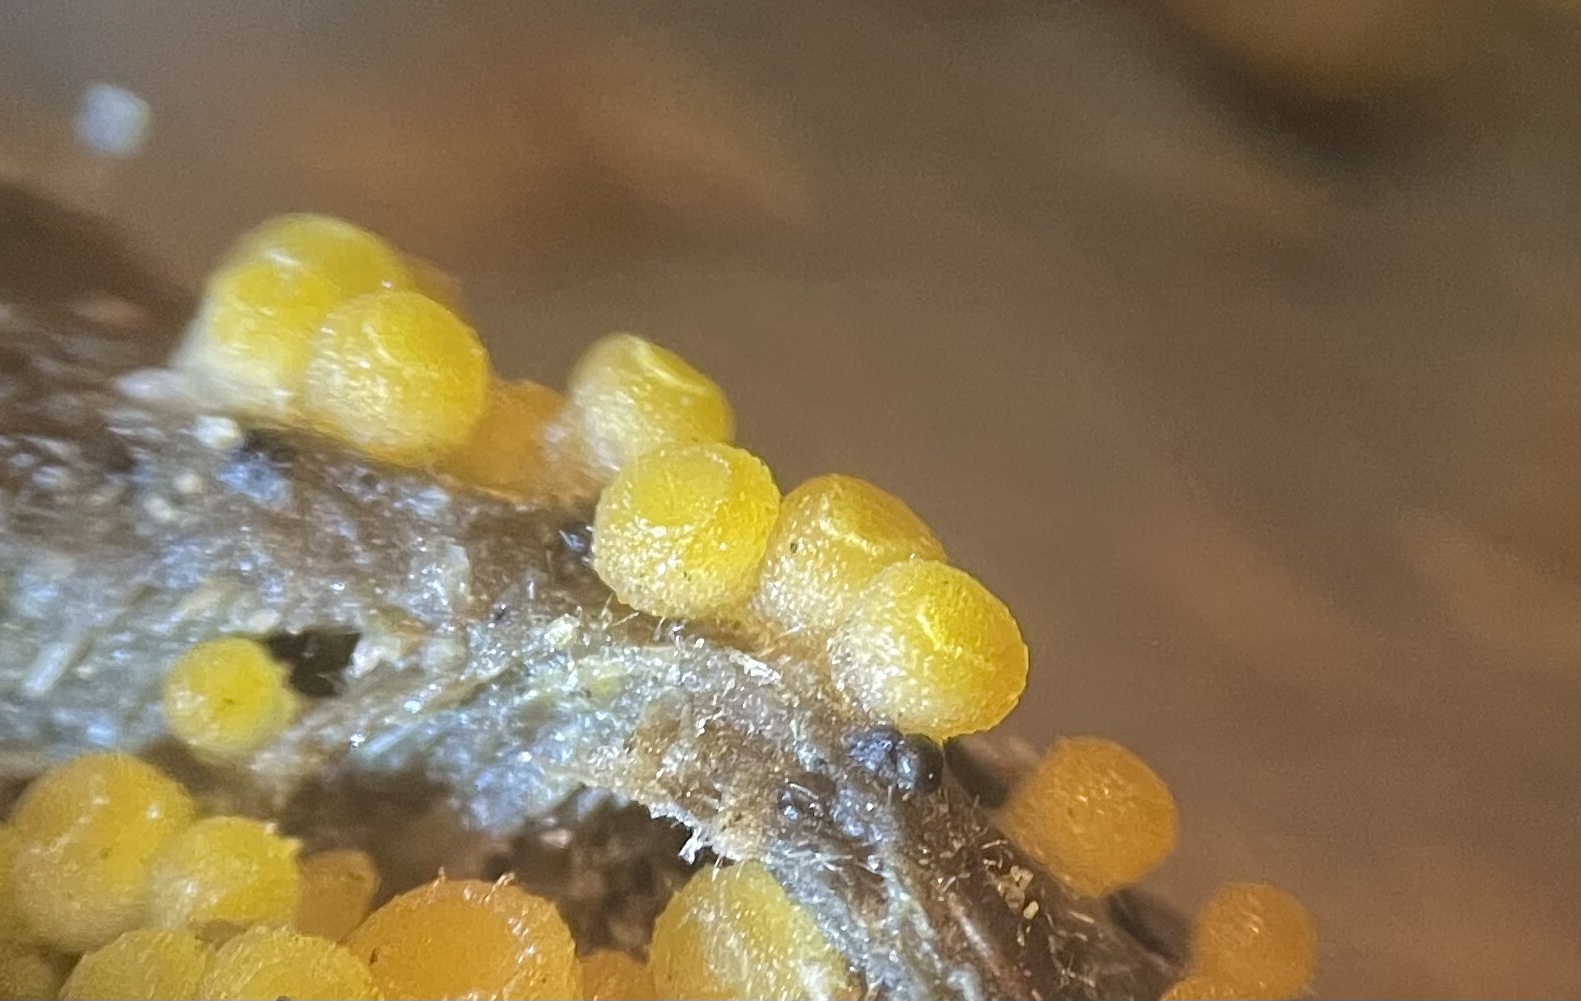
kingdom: Fungi
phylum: Ascomycota
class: Pezizomycetes
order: Pezizales
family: Pyronemataceae
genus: Byssonectria
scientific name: Byssonectria terrestris
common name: hjortebæger
